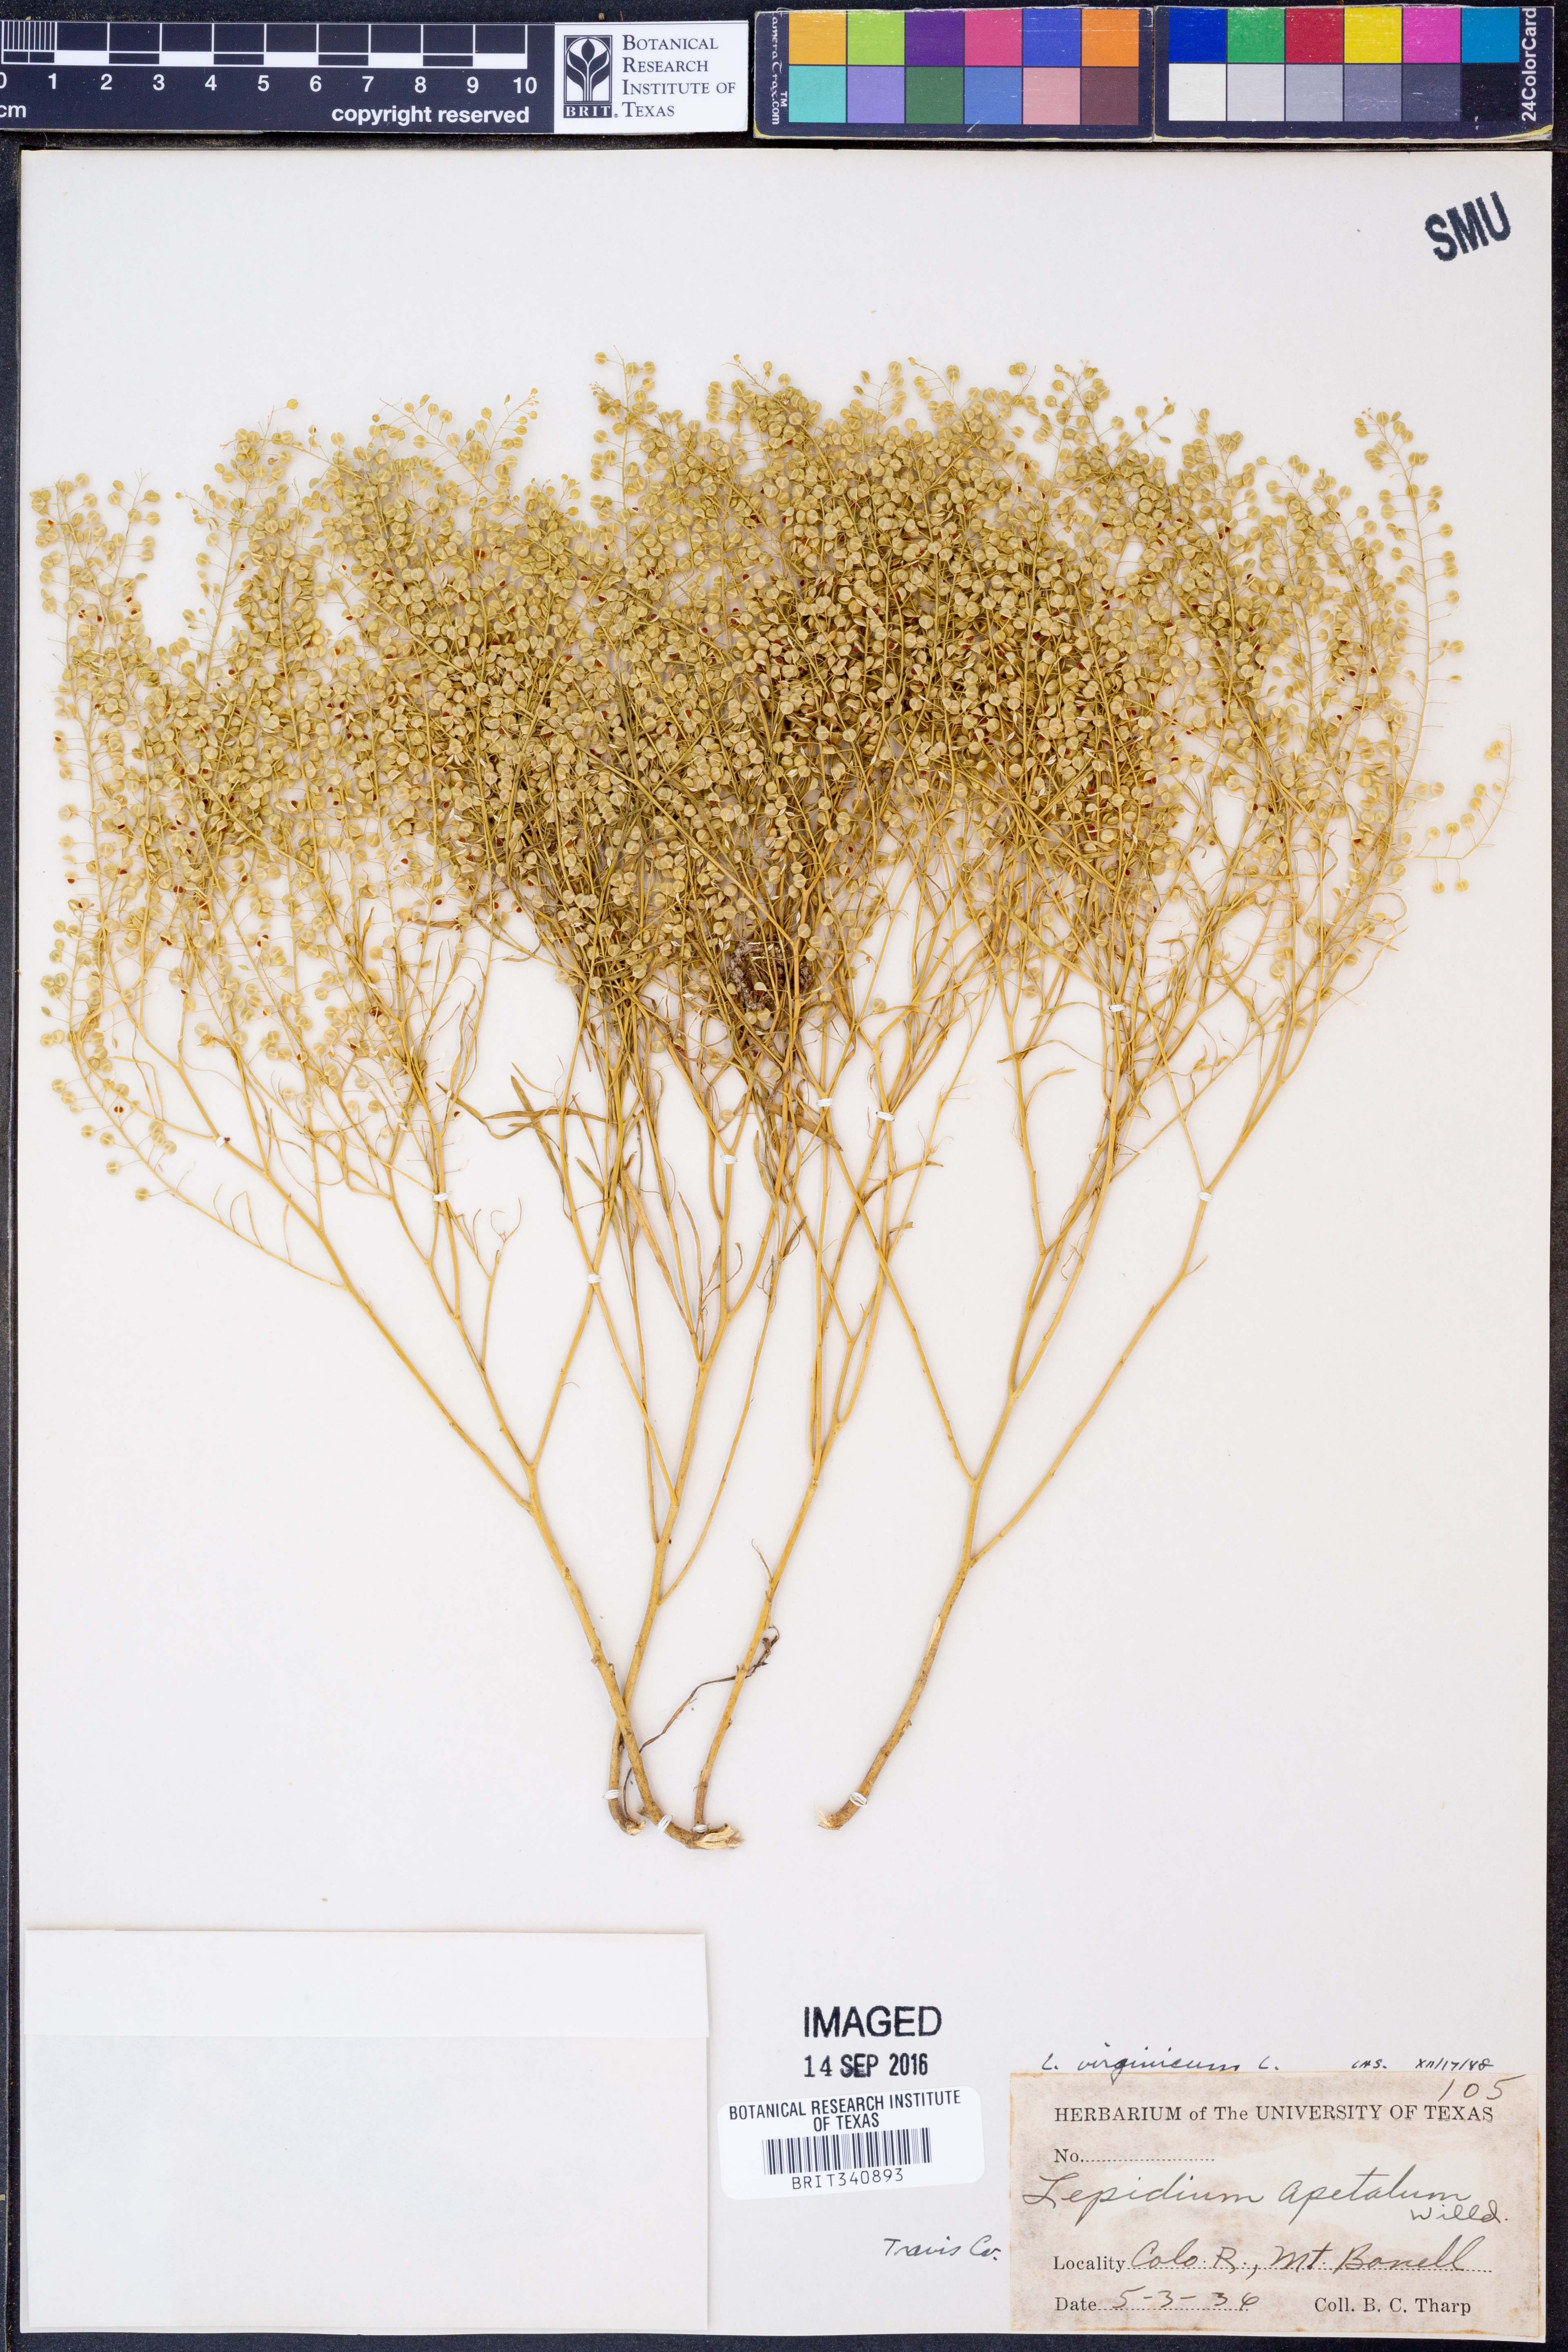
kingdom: Plantae
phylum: Tracheophyta
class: Magnoliopsida
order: Brassicales
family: Brassicaceae
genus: Lepidium
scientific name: Lepidium virginicum
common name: Least pepperwort
